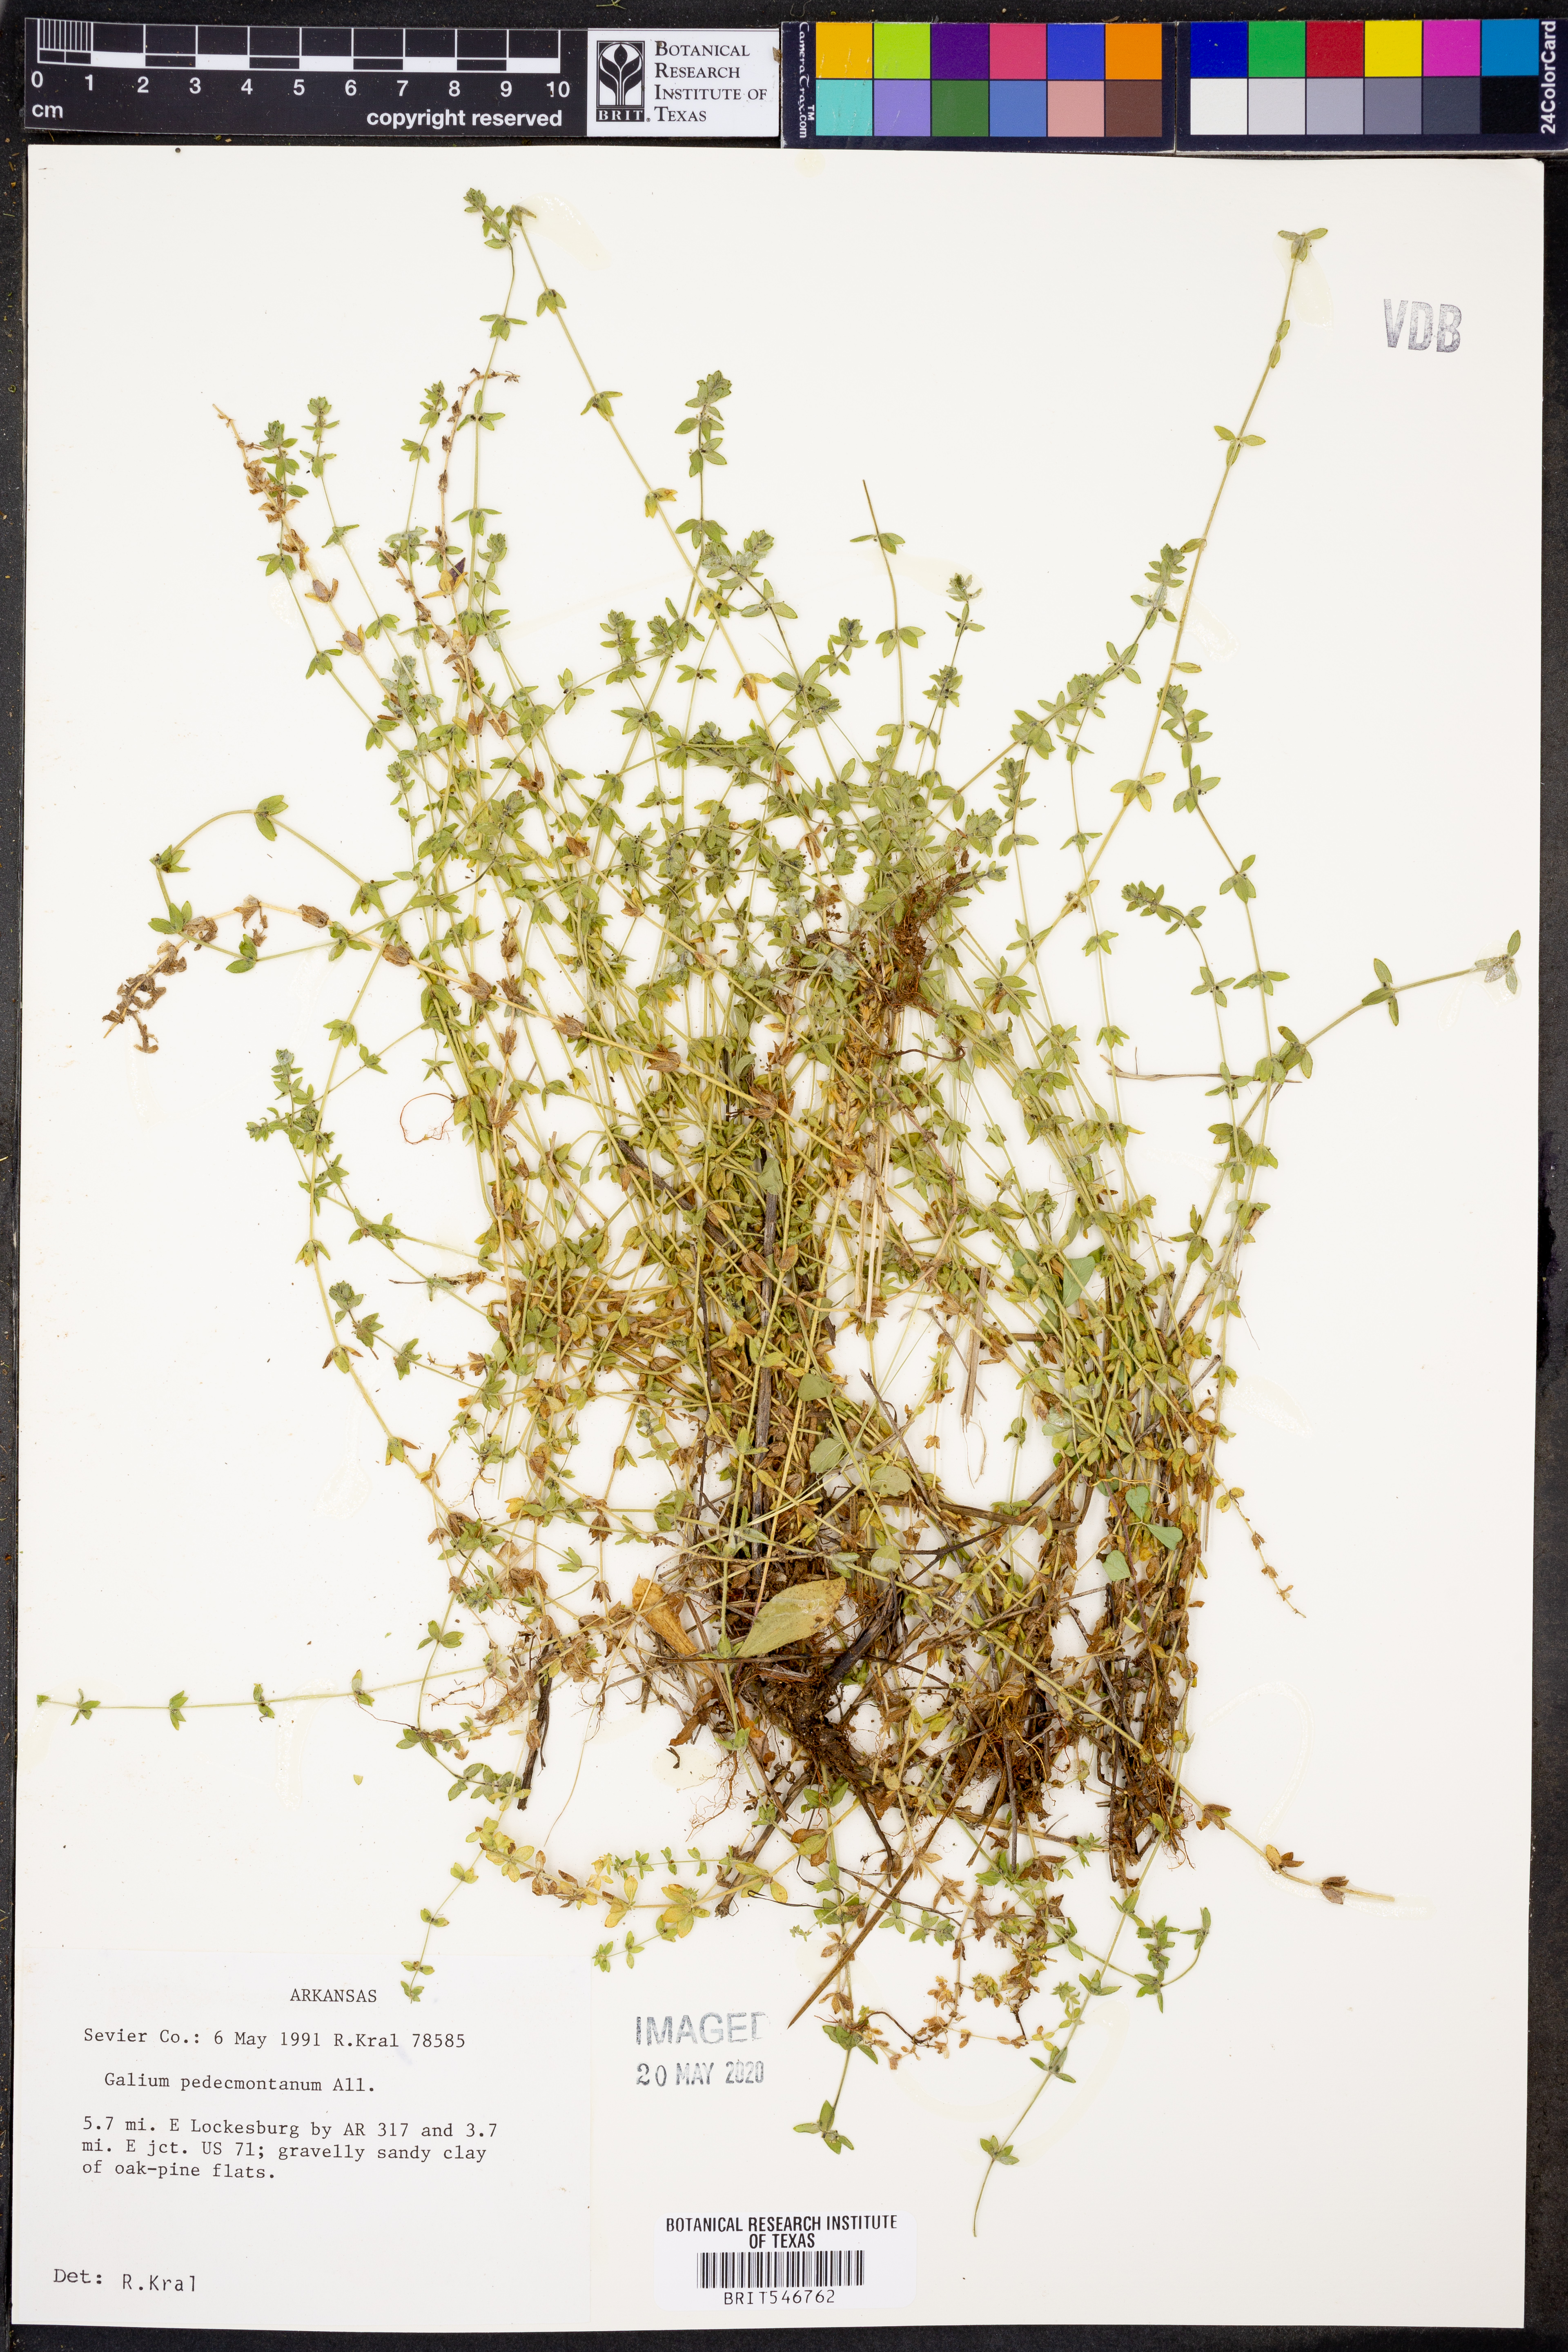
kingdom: Plantae
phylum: Tracheophyta
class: Magnoliopsida
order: Gentianales
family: Rubiaceae
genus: Cruciata
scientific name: Cruciata pedemontana
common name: Piedmont bedstraw
